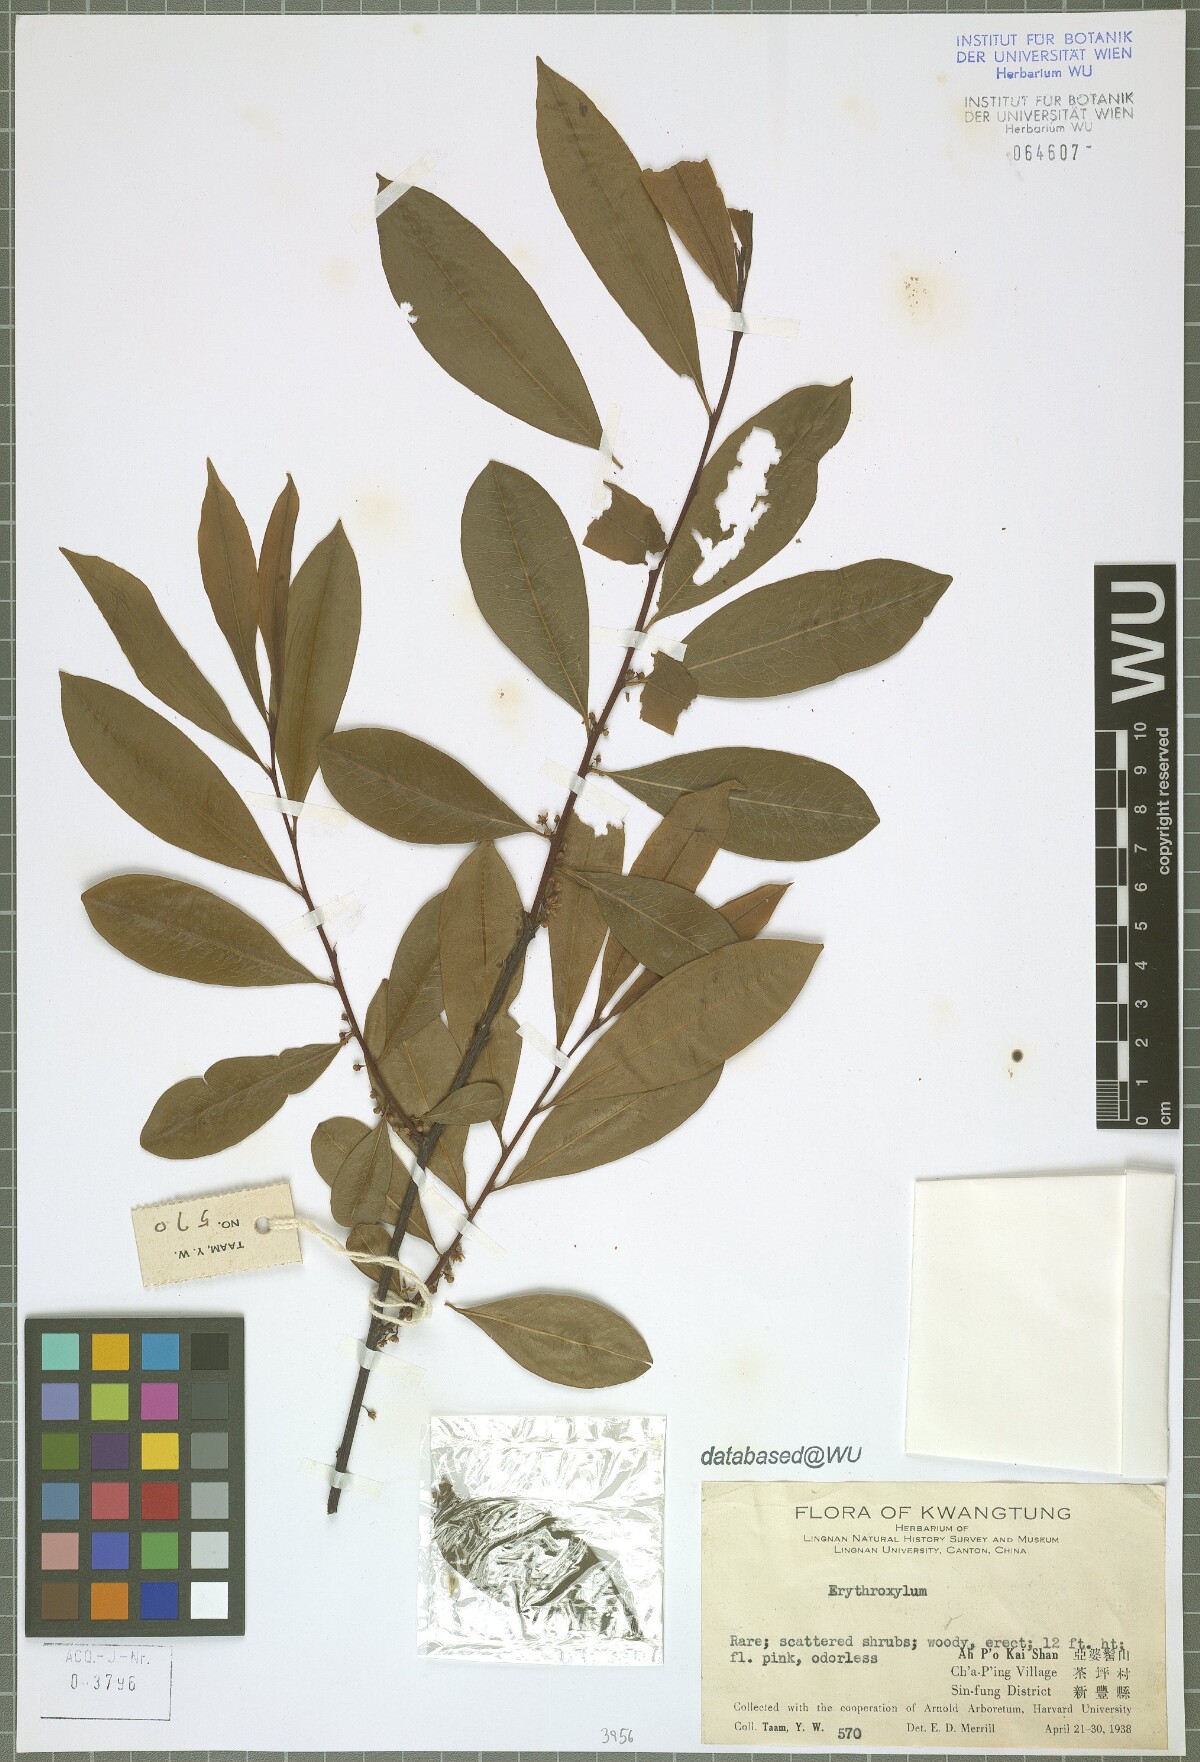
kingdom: Plantae
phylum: Tracheophyta
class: Magnoliopsida
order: Malpighiales
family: Erythroxylaceae
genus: Erythroxylum
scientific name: Erythroxylum
